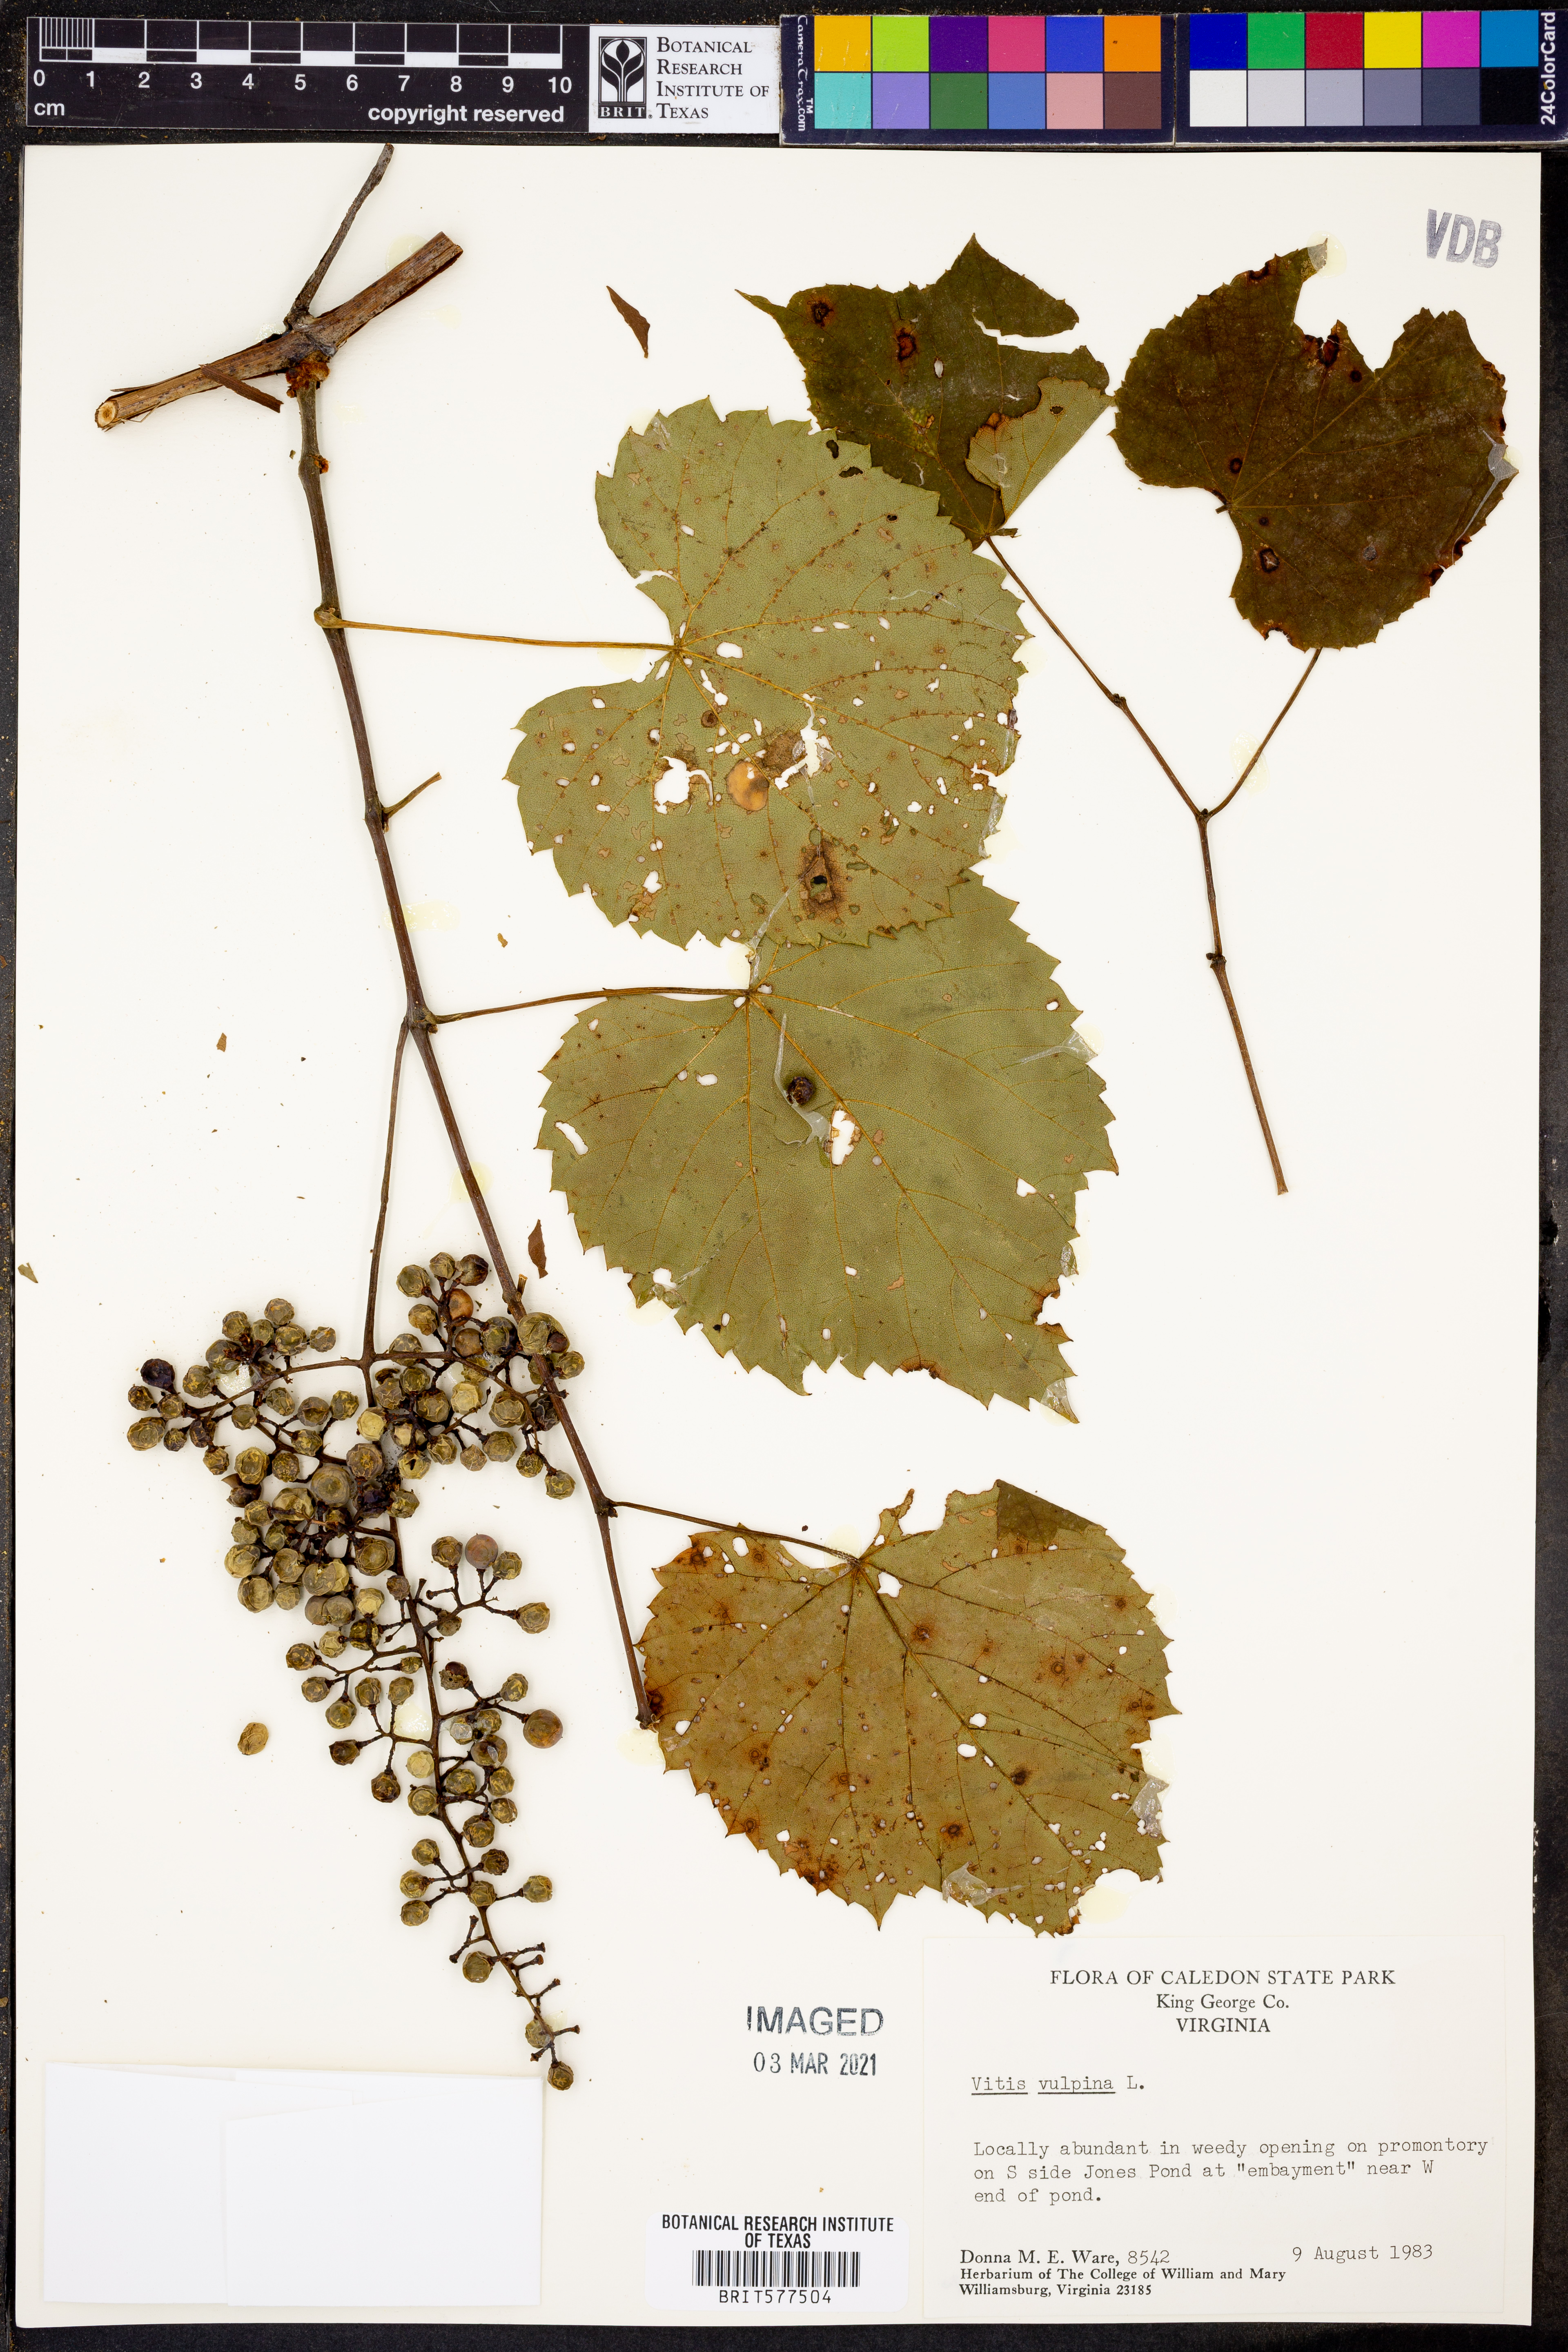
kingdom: Plantae
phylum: Tracheophyta
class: Magnoliopsida
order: Vitales
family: Vitaceae
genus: Vitis
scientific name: Vitis vulpina
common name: Frost grape
